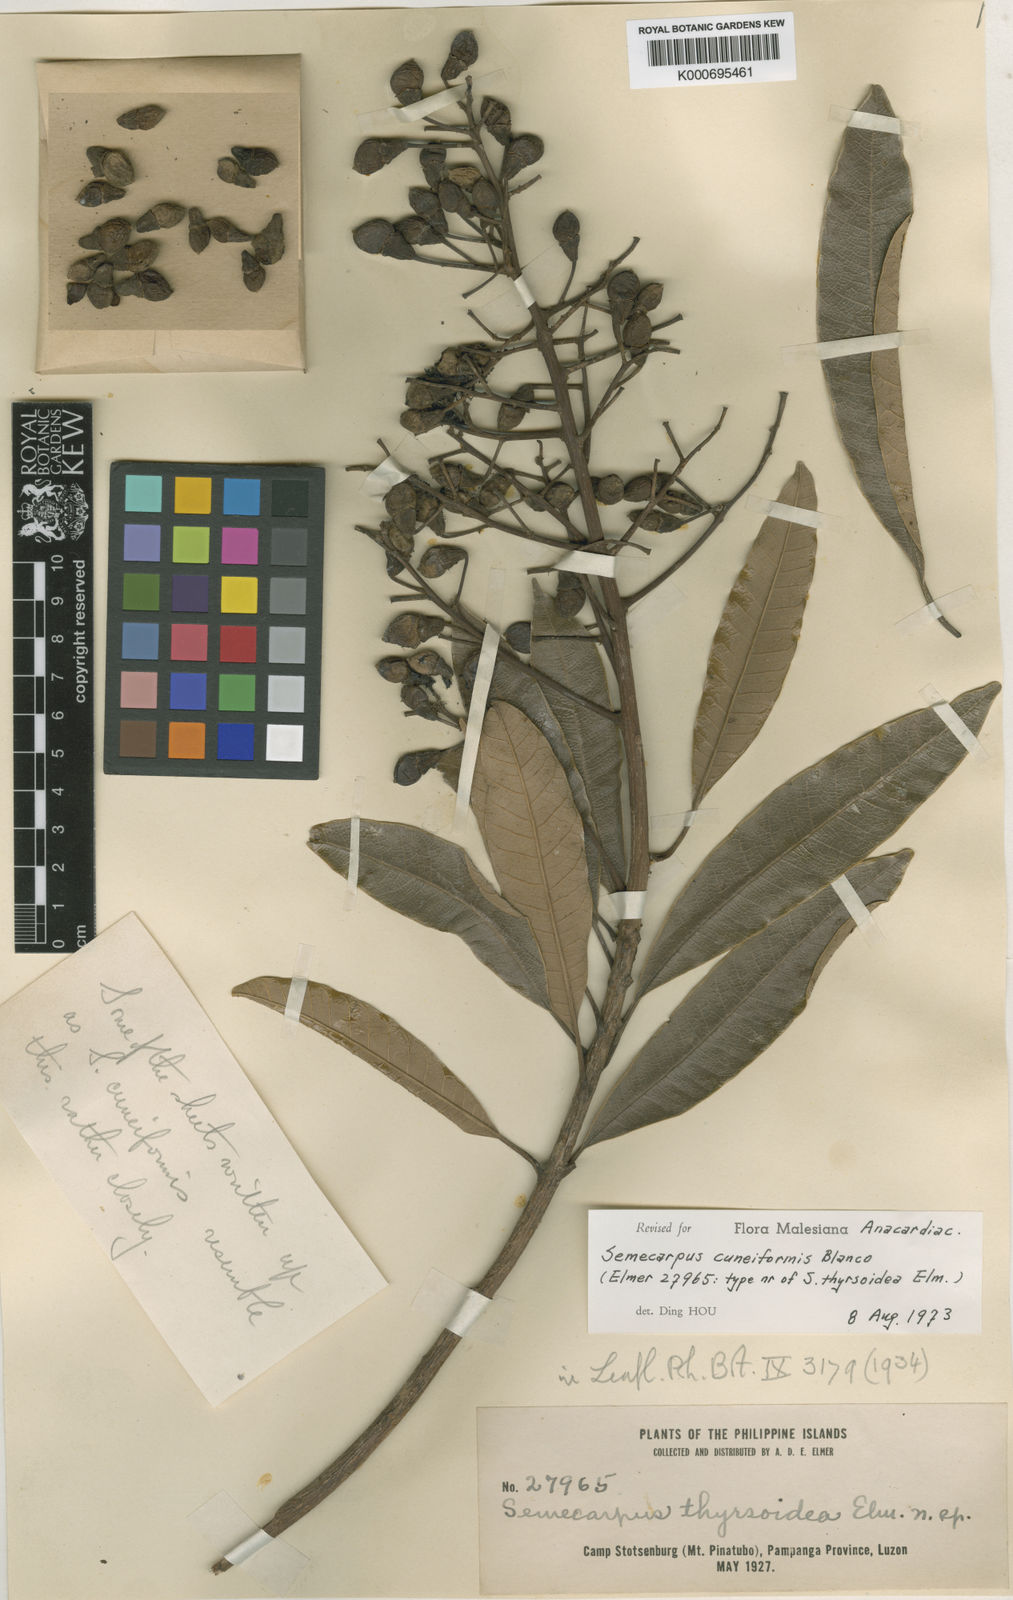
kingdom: Plantae
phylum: Tracheophyta
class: Magnoliopsida
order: Sapindales
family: Anacardiaceae
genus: Semecarpus
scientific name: Semecarpus cuneiformis
